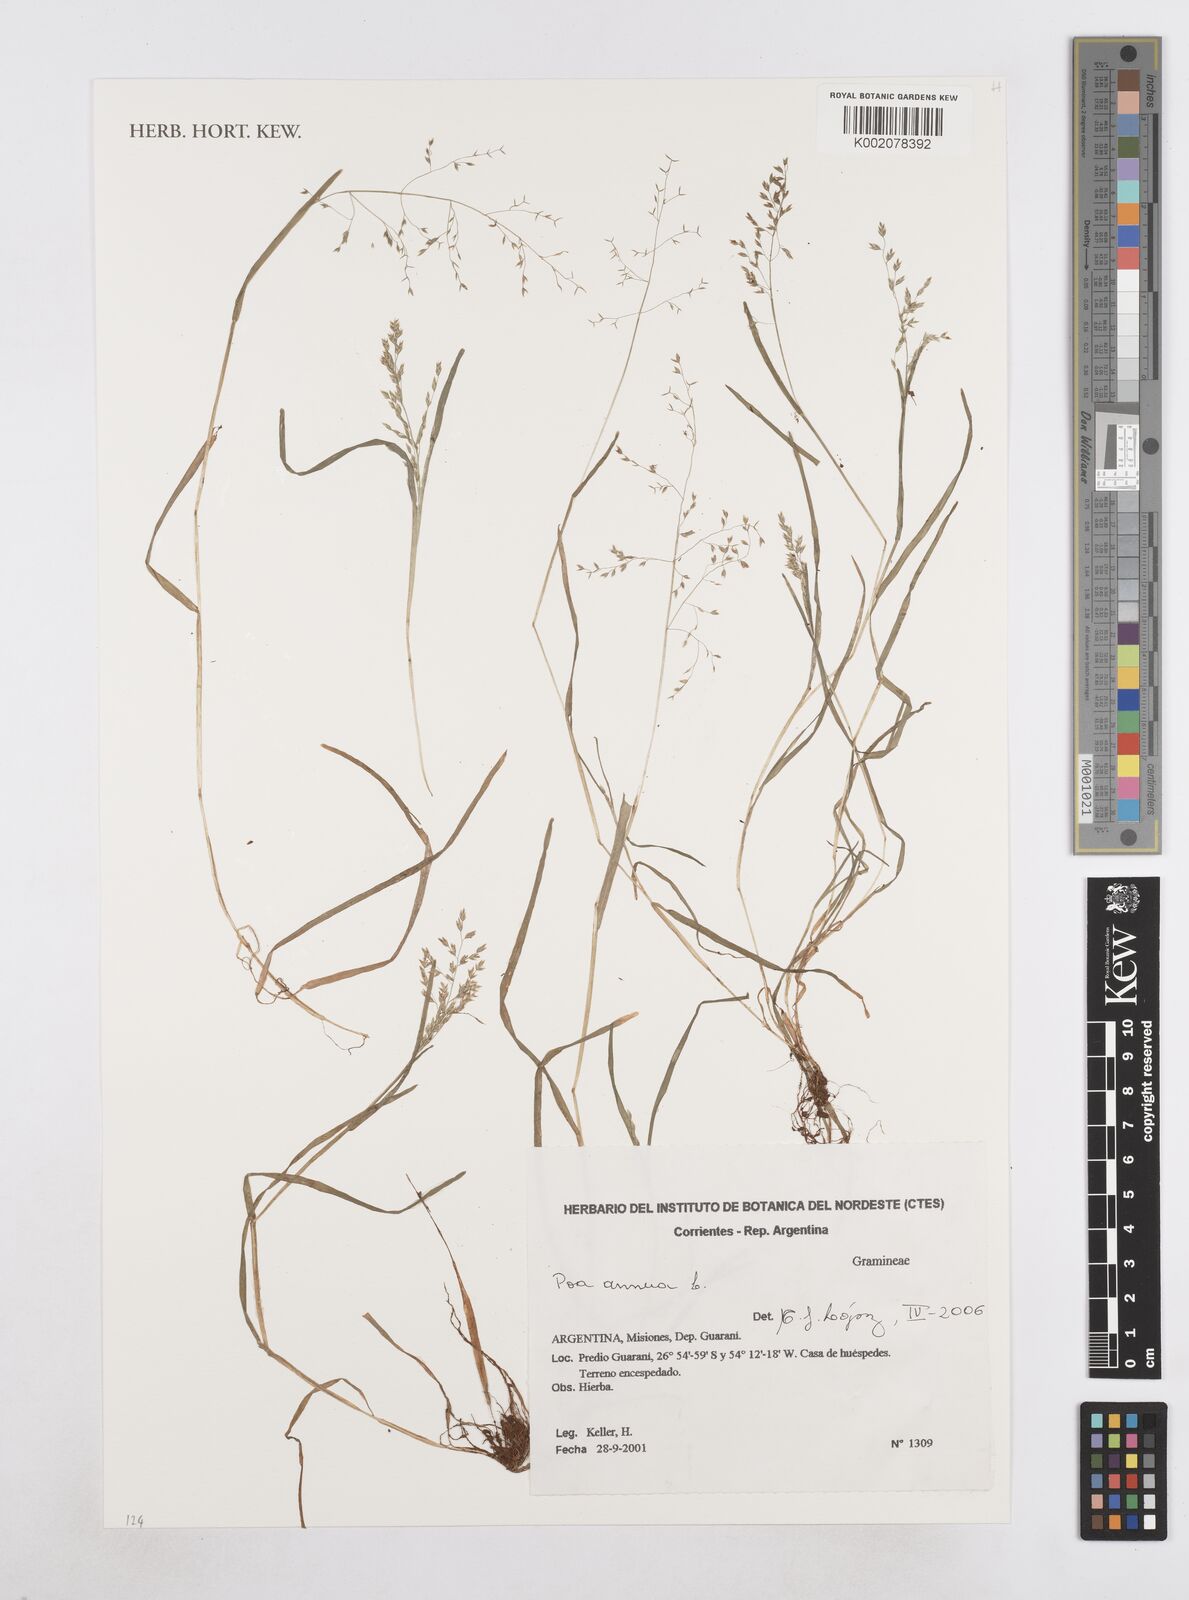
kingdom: Plantae
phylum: Tracheophyta
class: Liliopsida
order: Poales
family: Poaceae
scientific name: Poaceae
